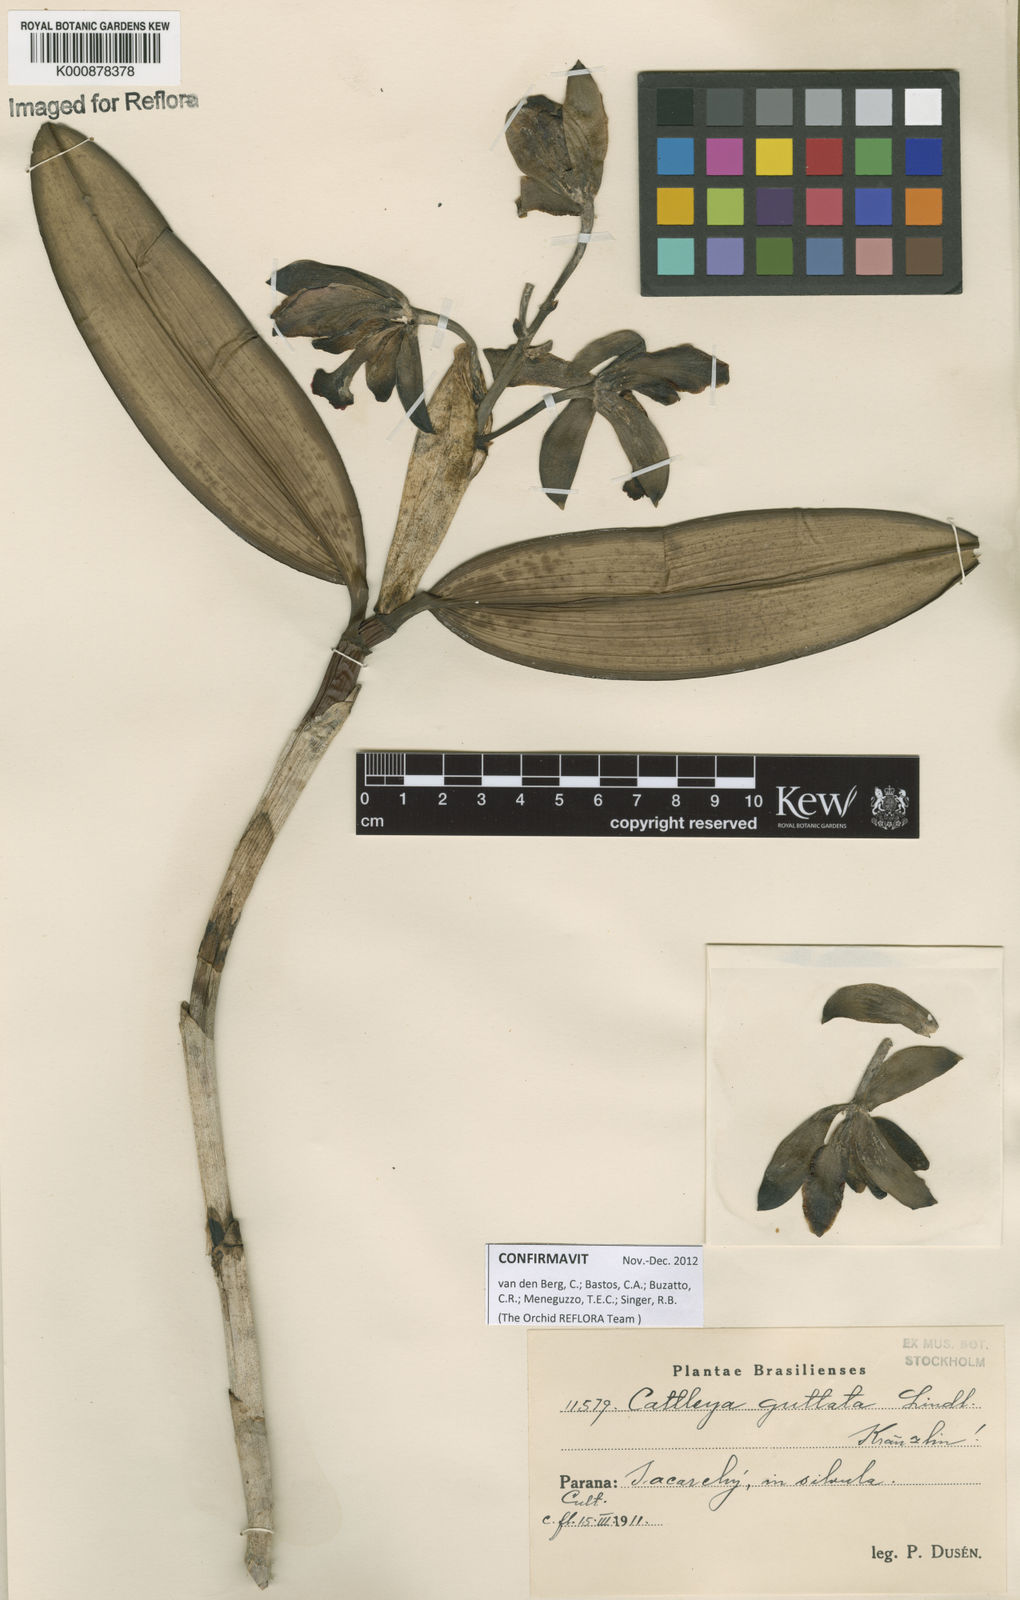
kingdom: Plantae
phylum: Tracheophyta
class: Liliopsida
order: Asparagales
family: Orchidaceae
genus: Cattleya
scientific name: Cattleya guttata
